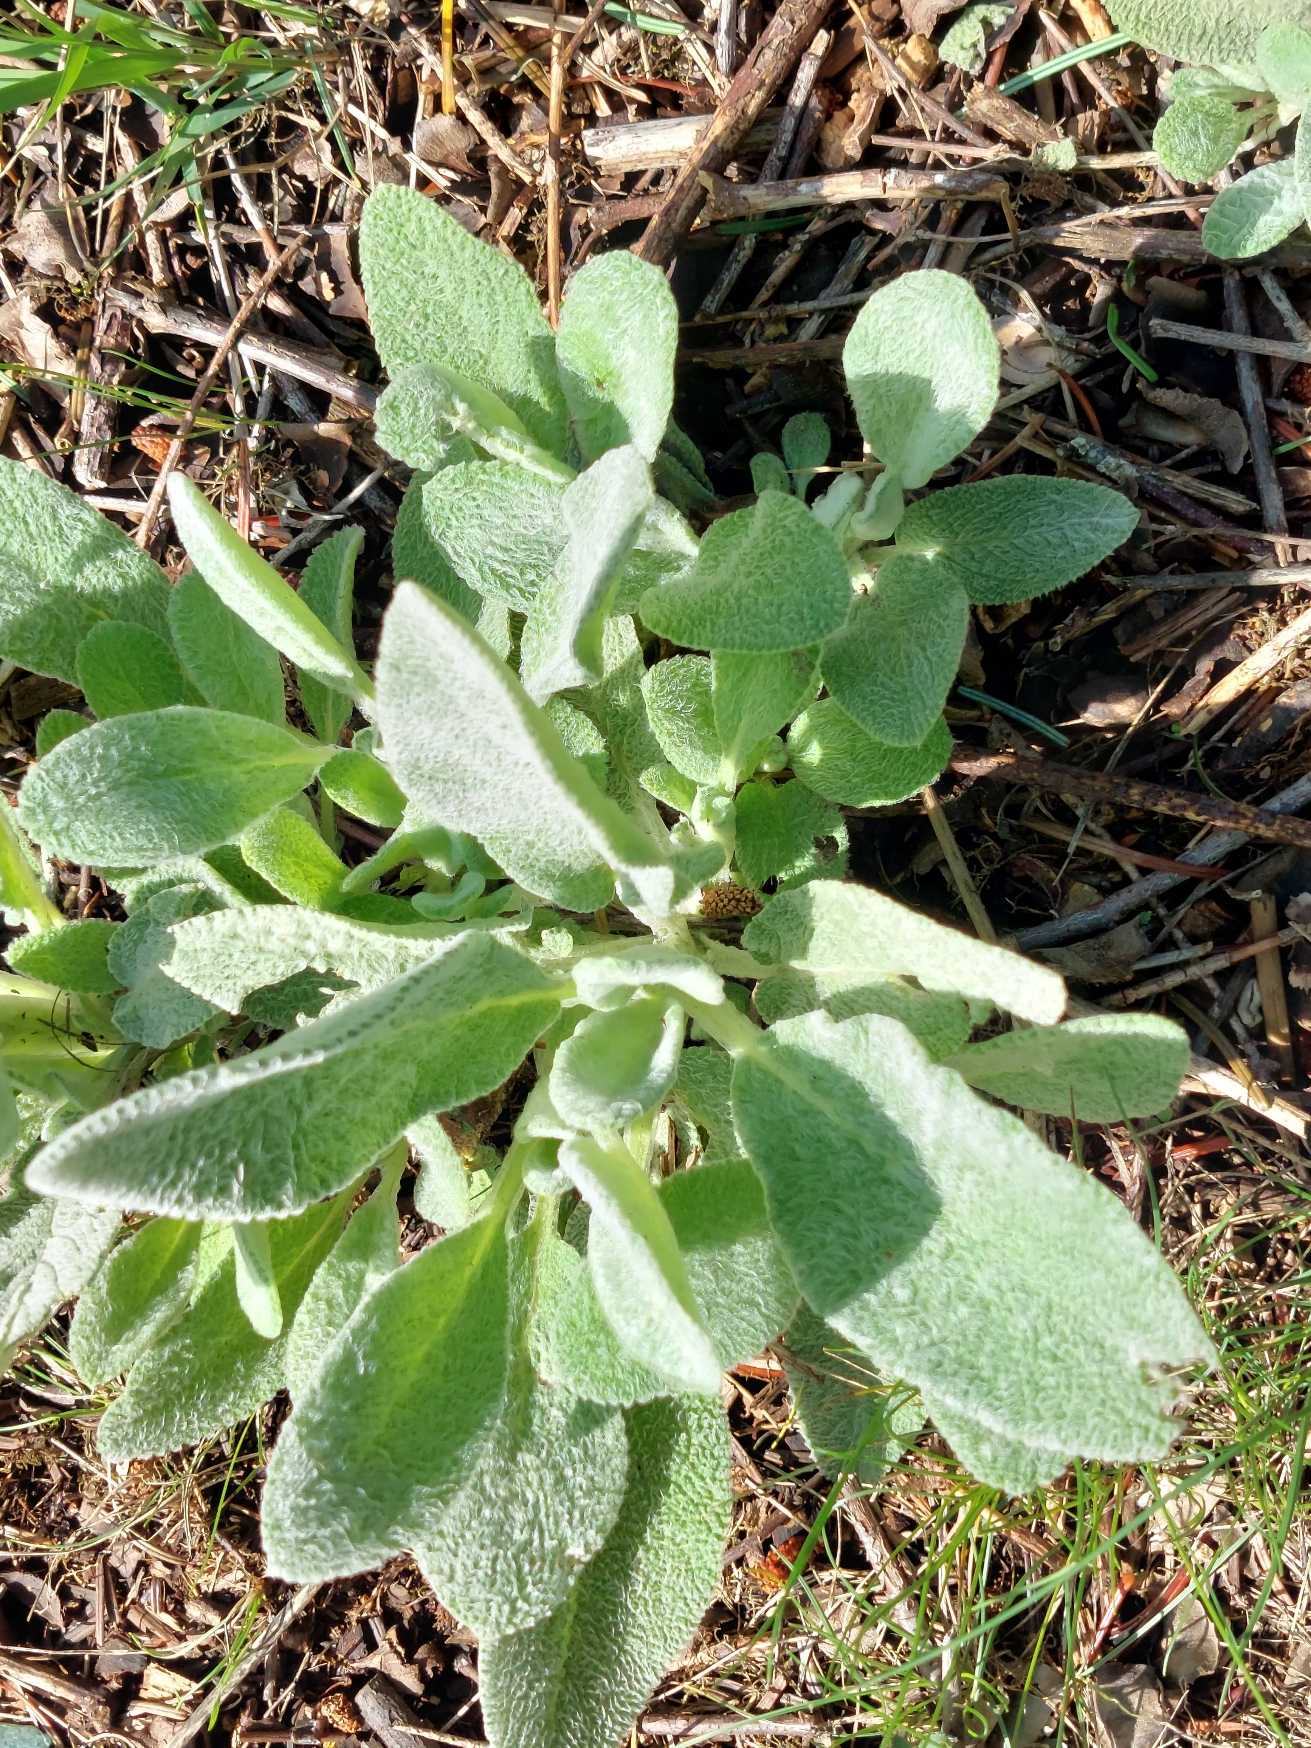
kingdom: Plantae
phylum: Tracheophyta
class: Magnoliopsida
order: Lamiales
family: Lamiaceae
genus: Stachys
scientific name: Stachys byzantina
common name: Lammeøre
